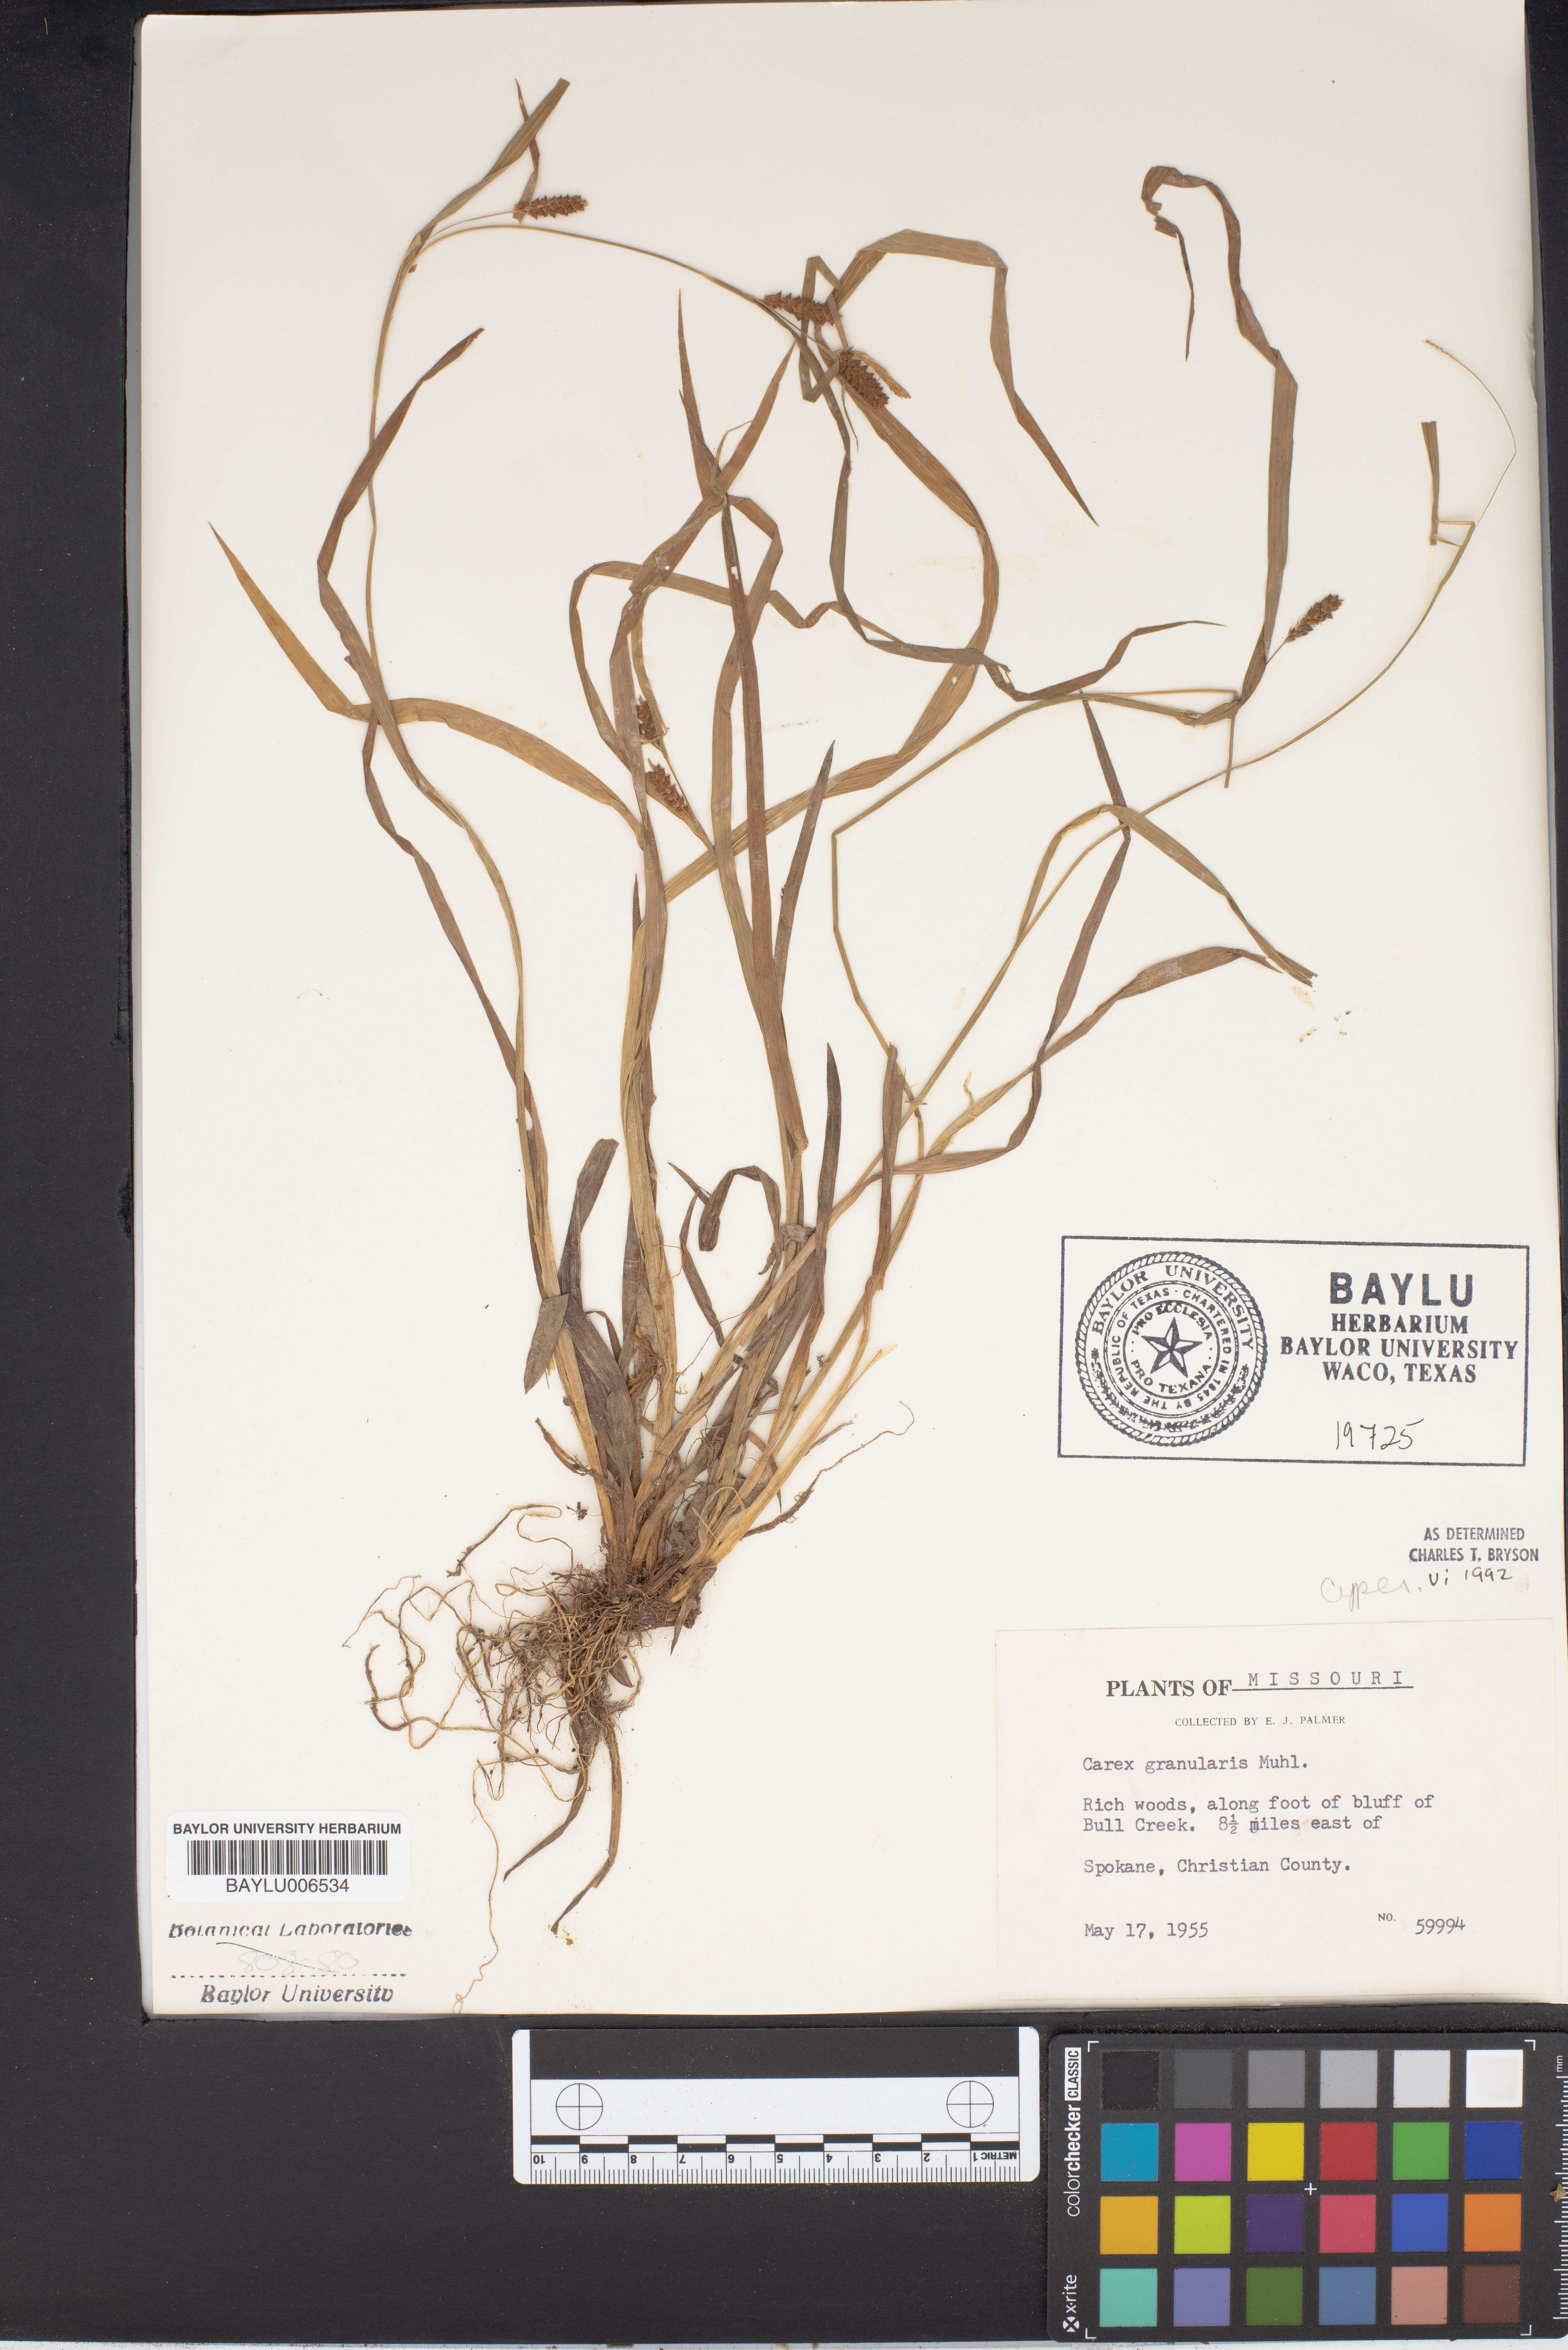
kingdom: Plantae
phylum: Tracheophyta
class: Liliopsida
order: Poales
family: Cyperaceae
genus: Carex
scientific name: Carex bohemica
